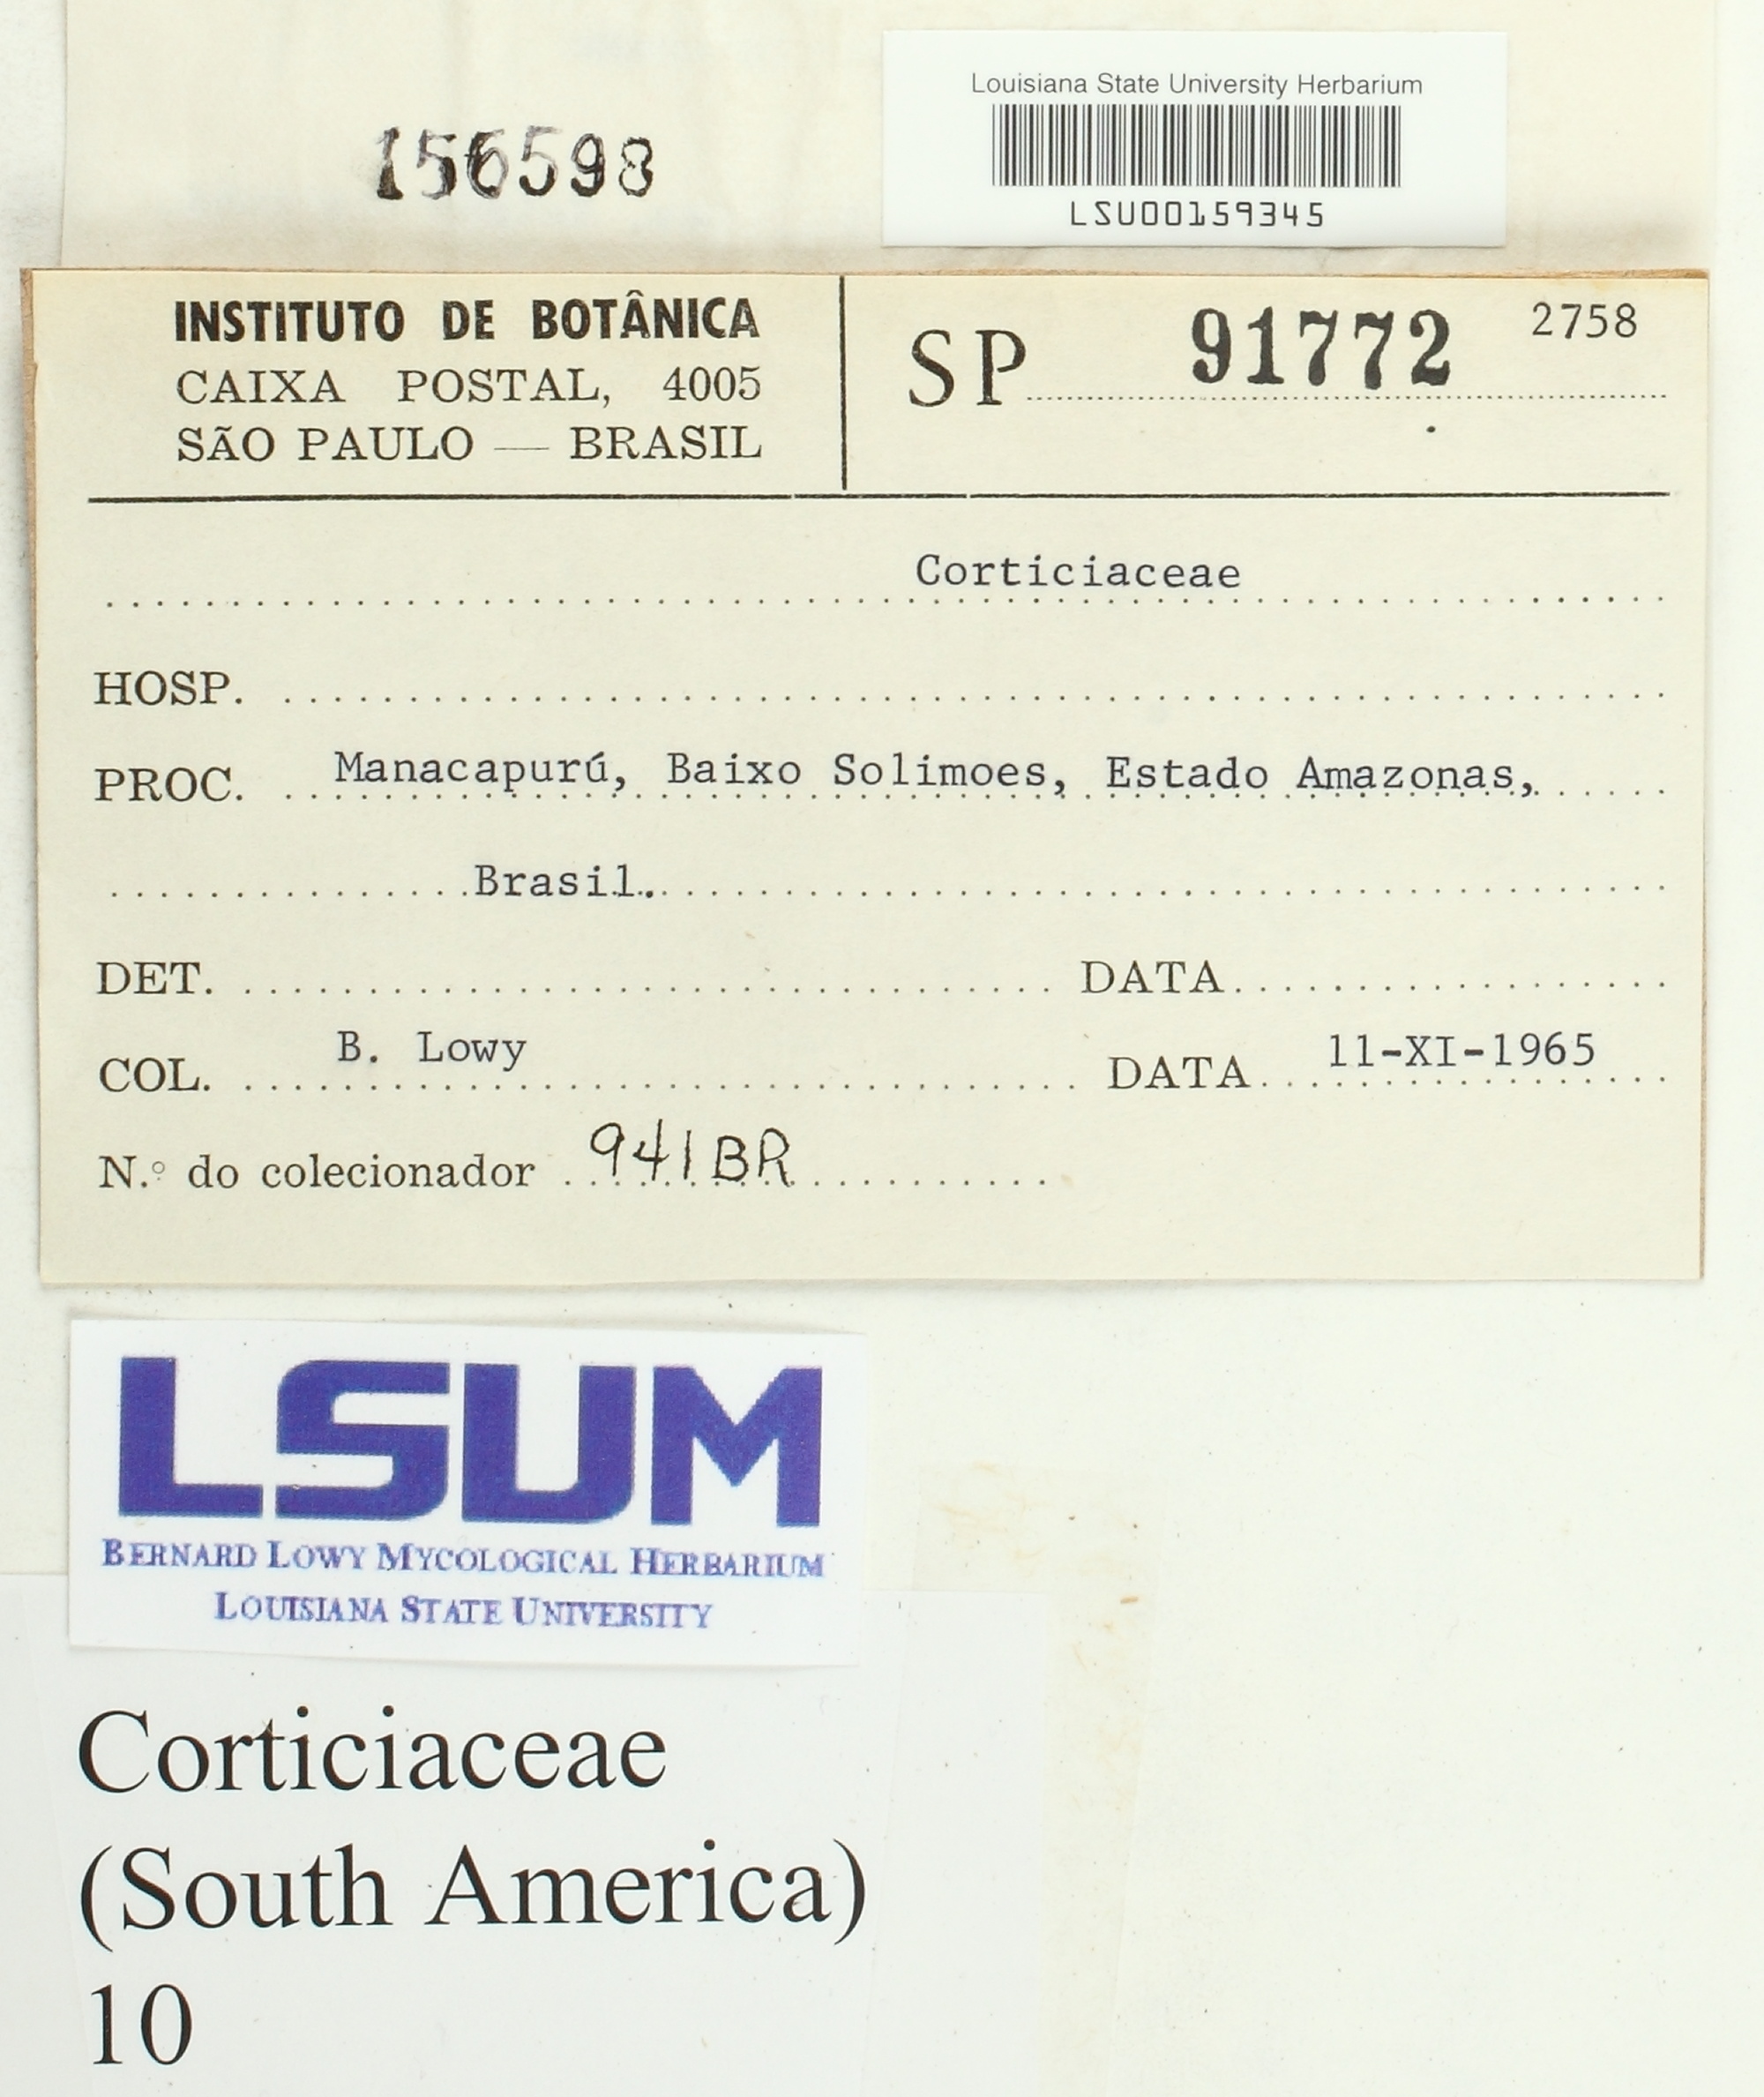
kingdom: Fungi
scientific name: Fungi
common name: Fungi
